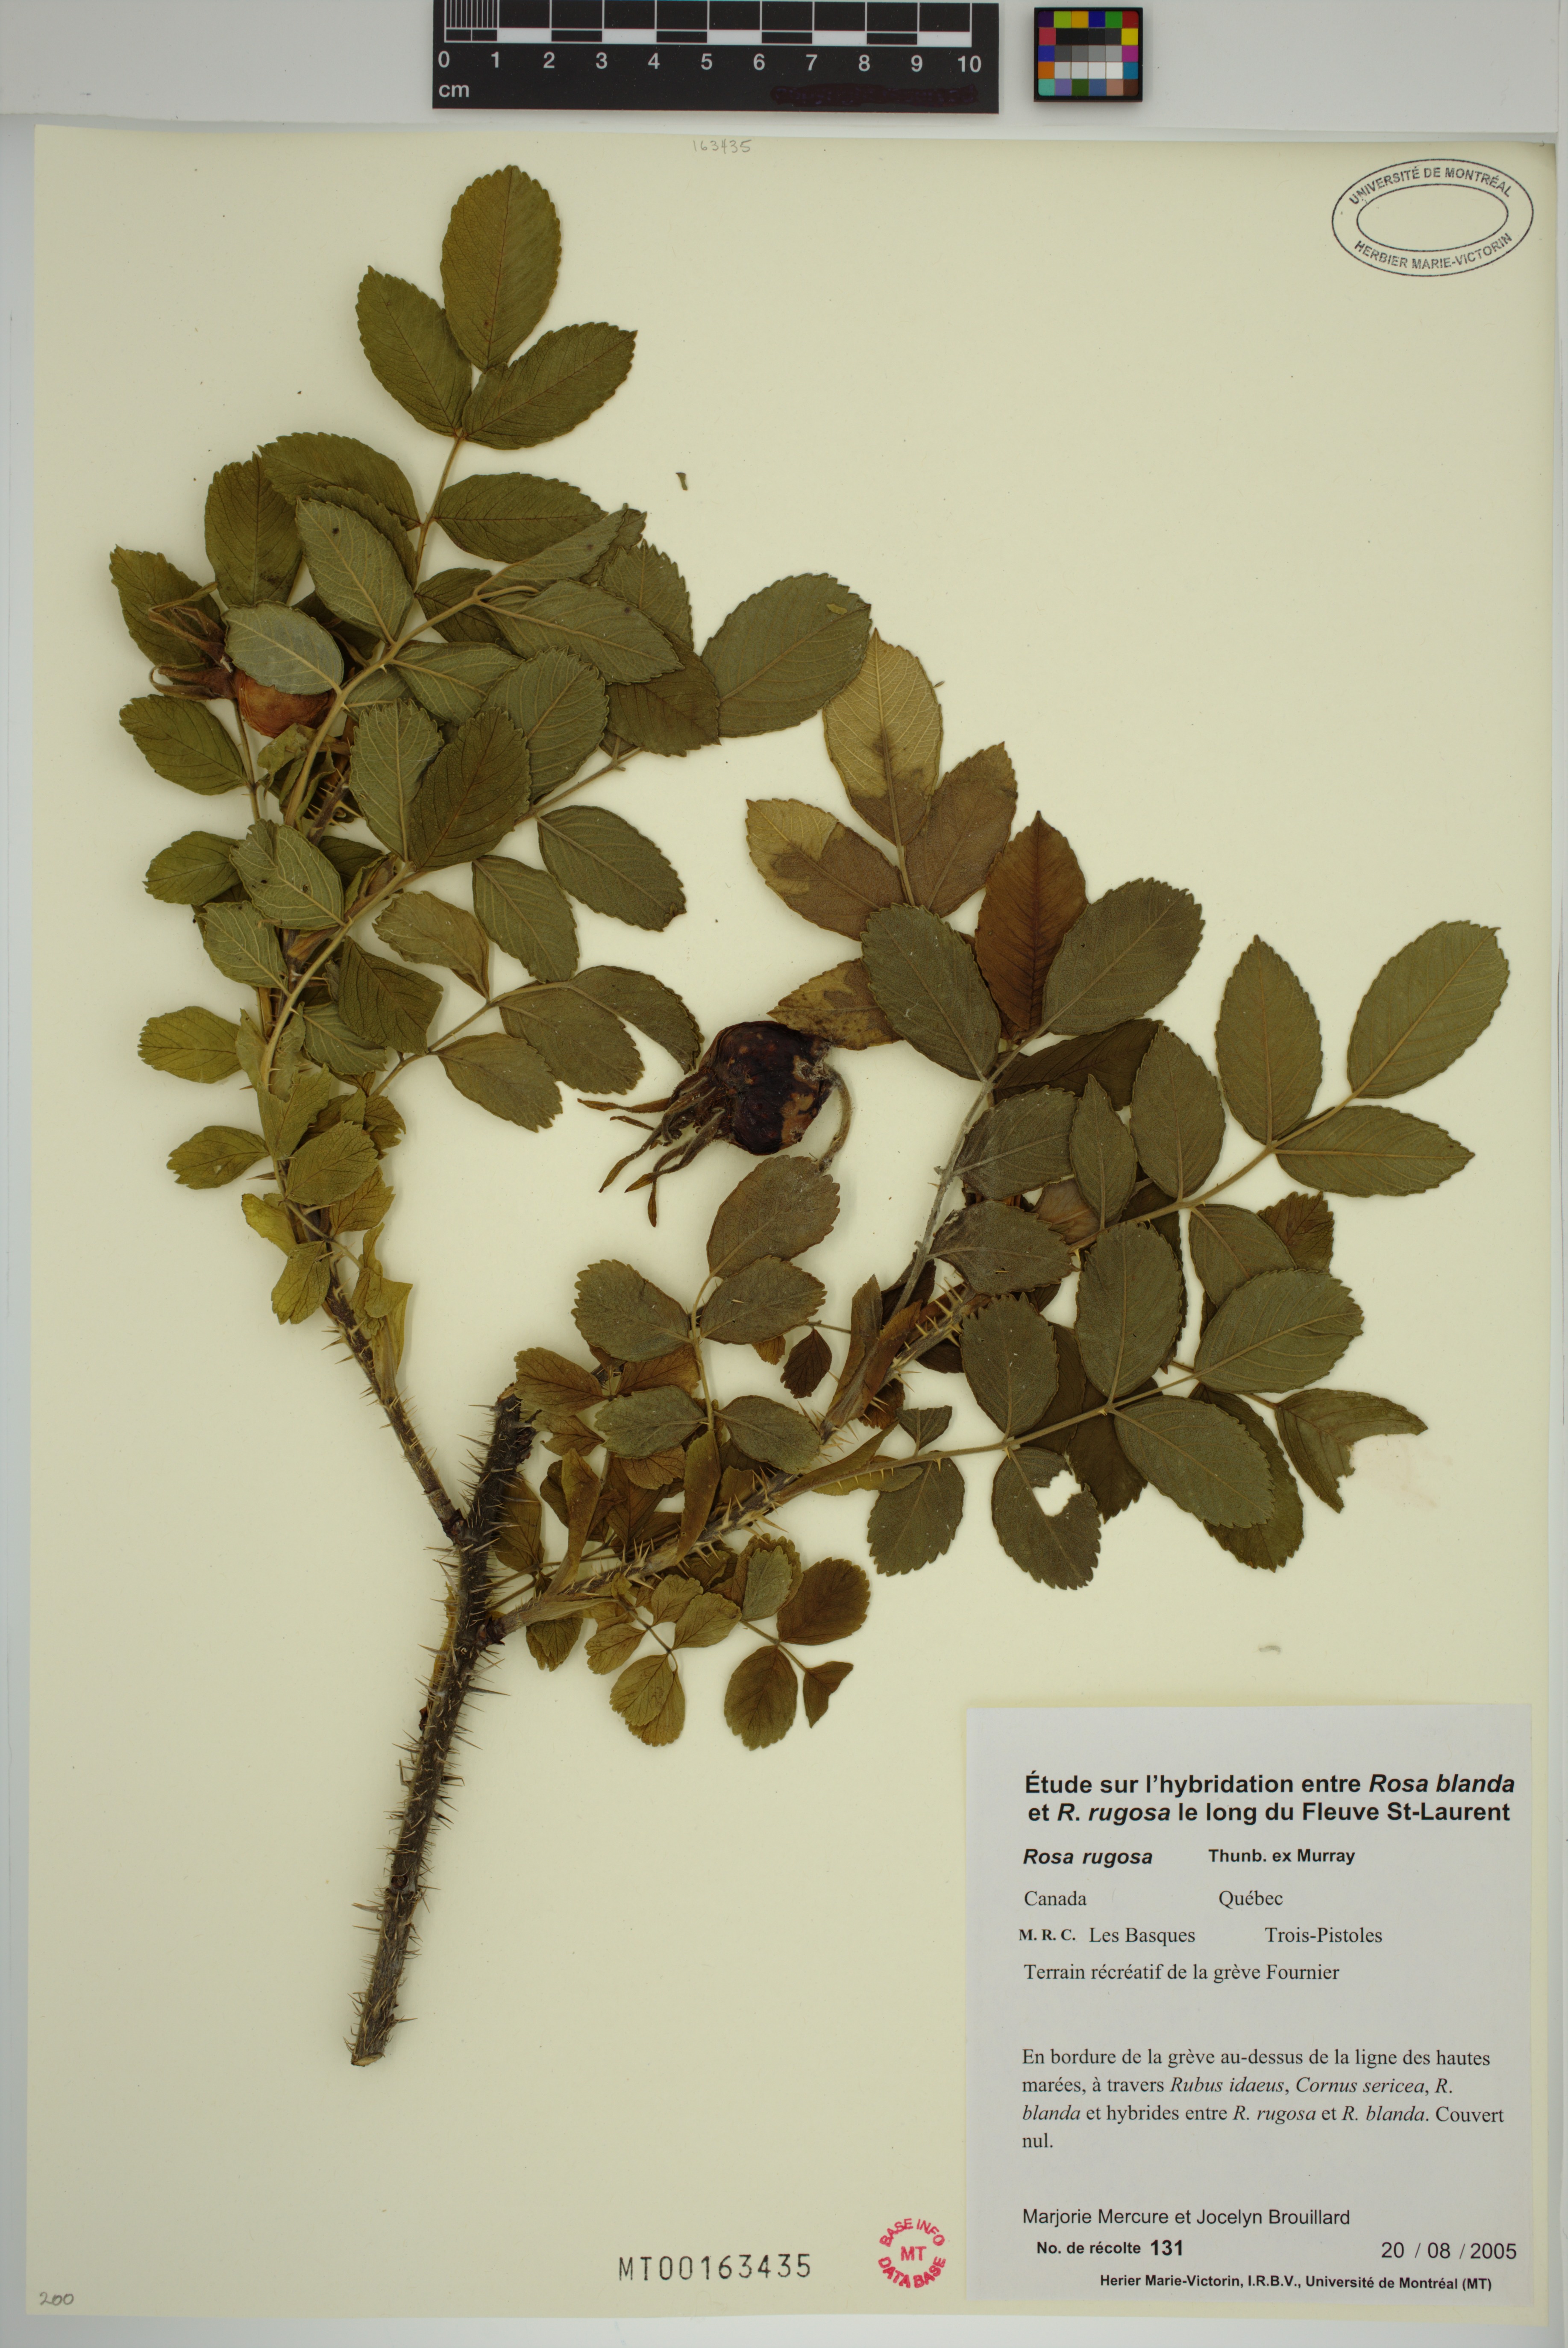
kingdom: Plantae
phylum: Tracheophyta
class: Magnoliopsida
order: Rosales
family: Rosaceae
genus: Rosa
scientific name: Rosa rugosa
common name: Japanese rose
